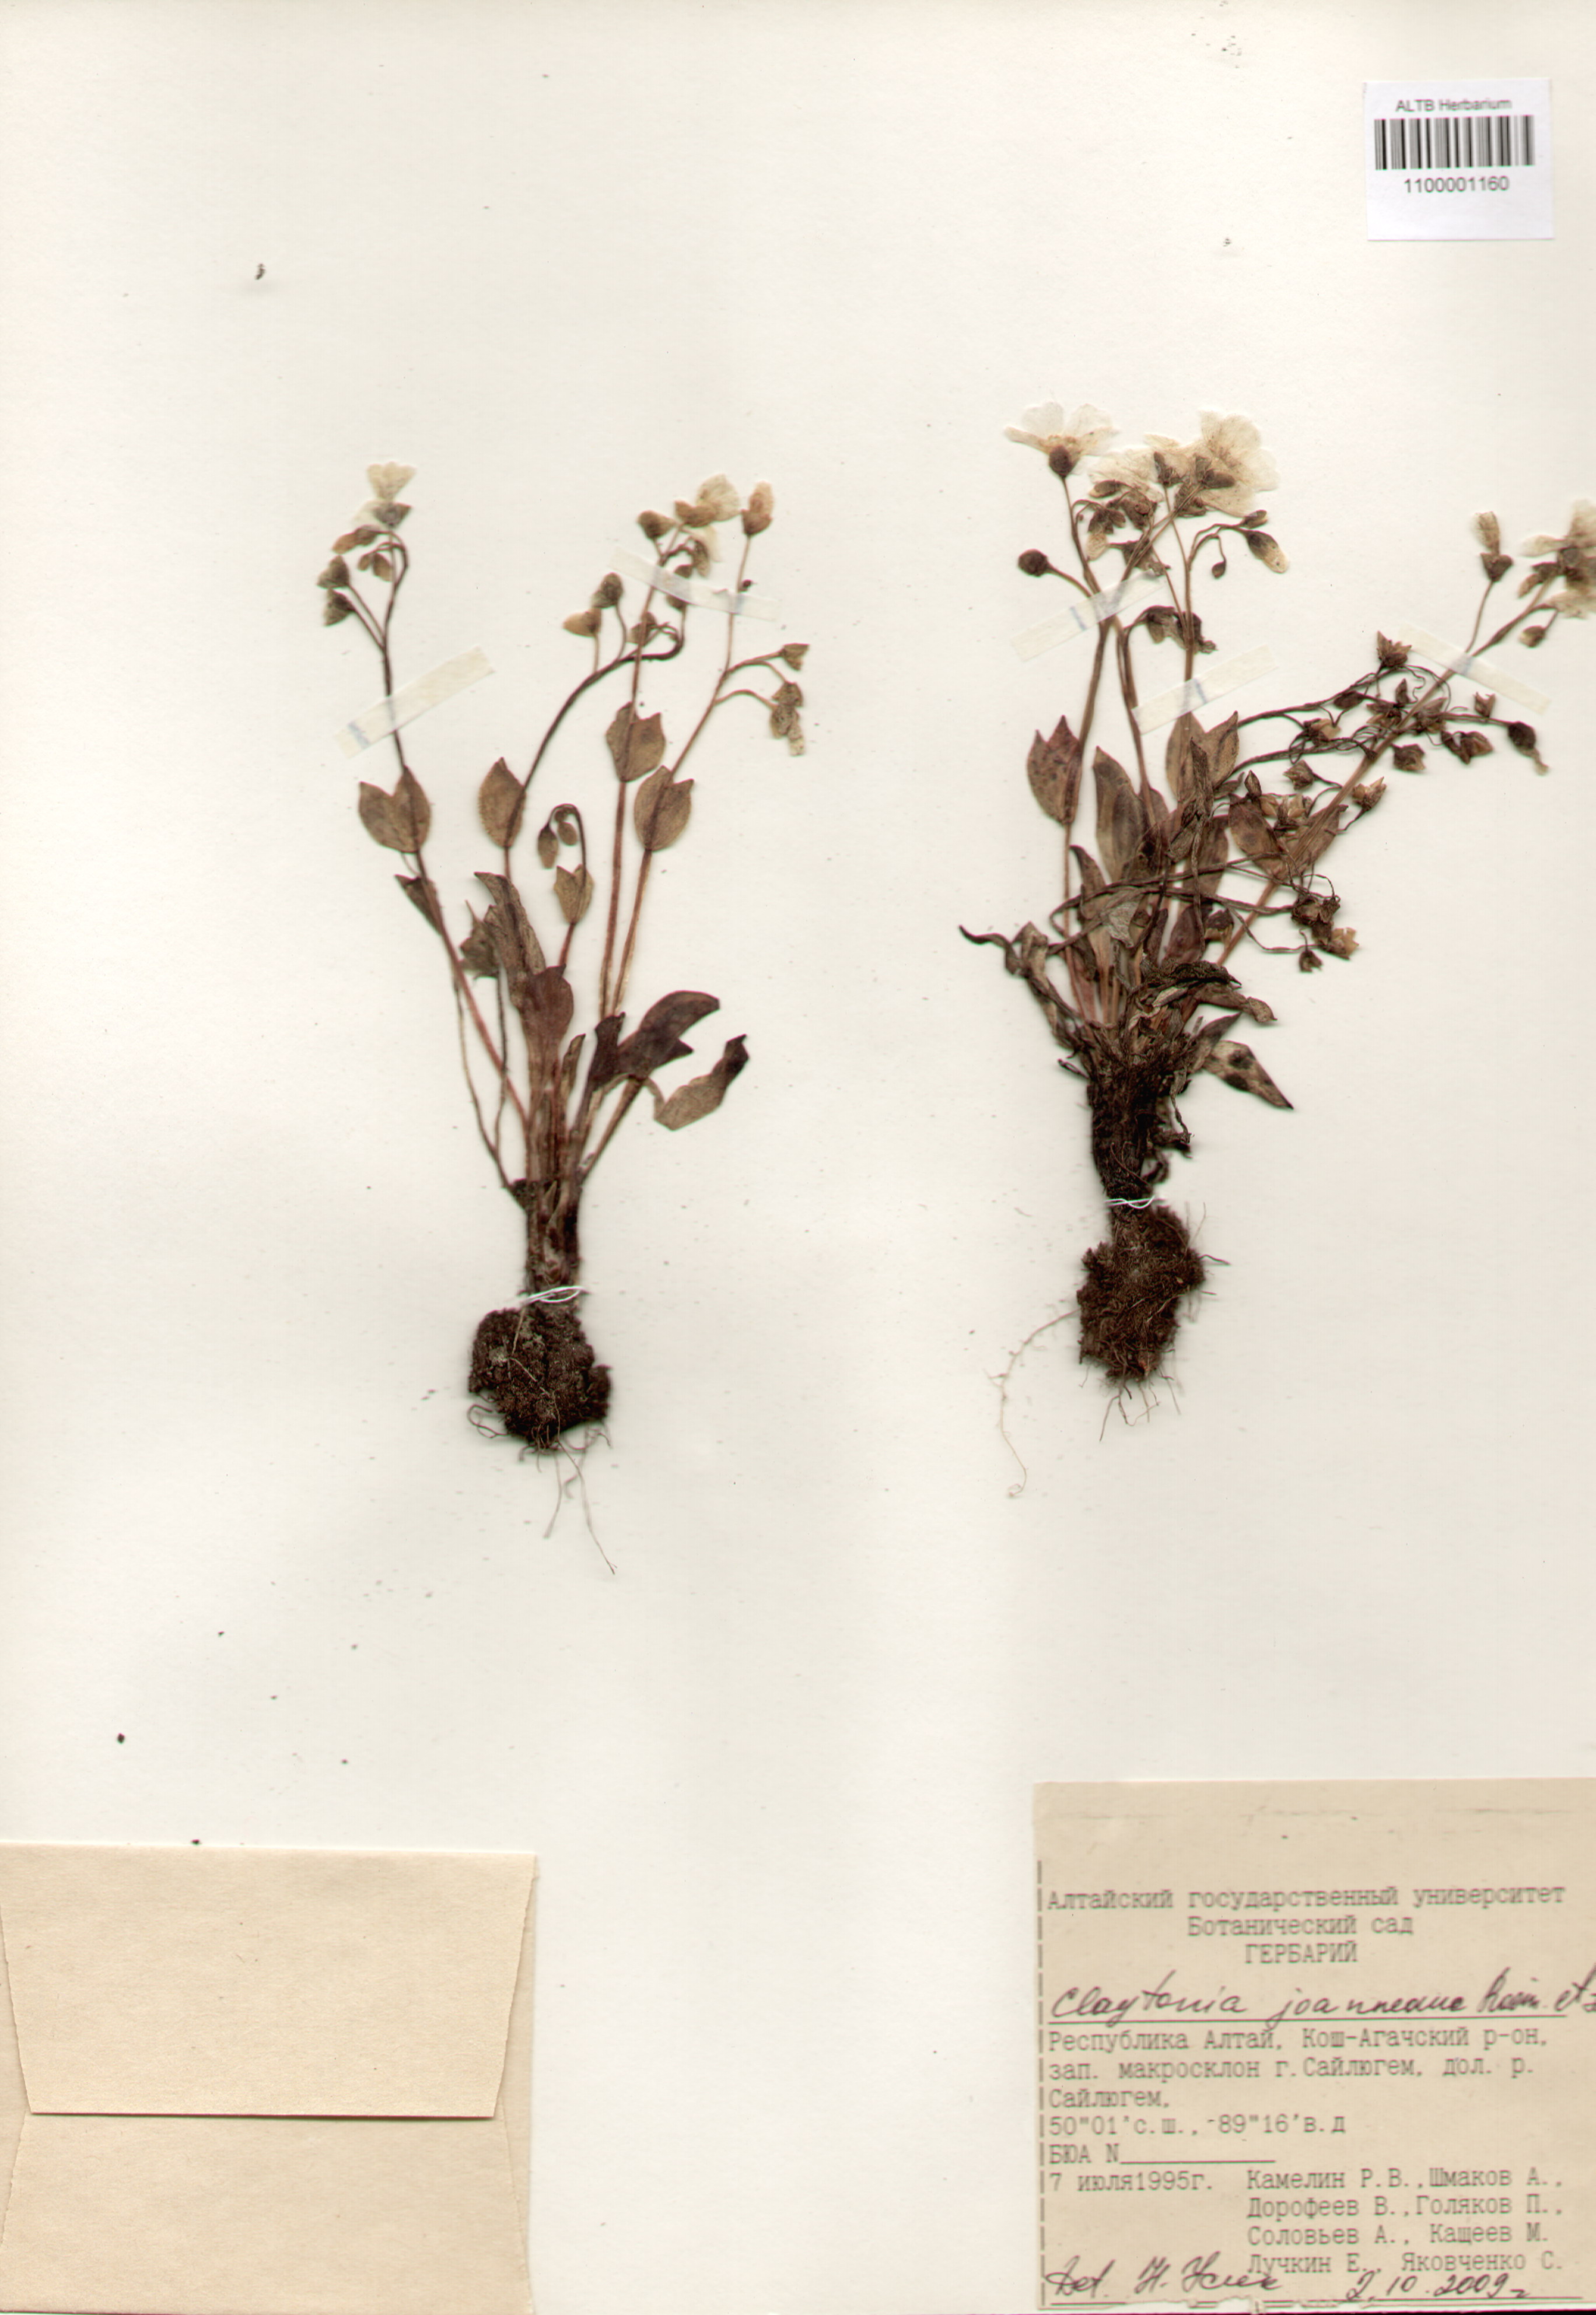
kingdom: Plantae
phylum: Tracheophyta
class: Magnoliopsida
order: Caryophyllales
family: Montiaceae
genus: Claytonia
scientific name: Claytonia joanneana
